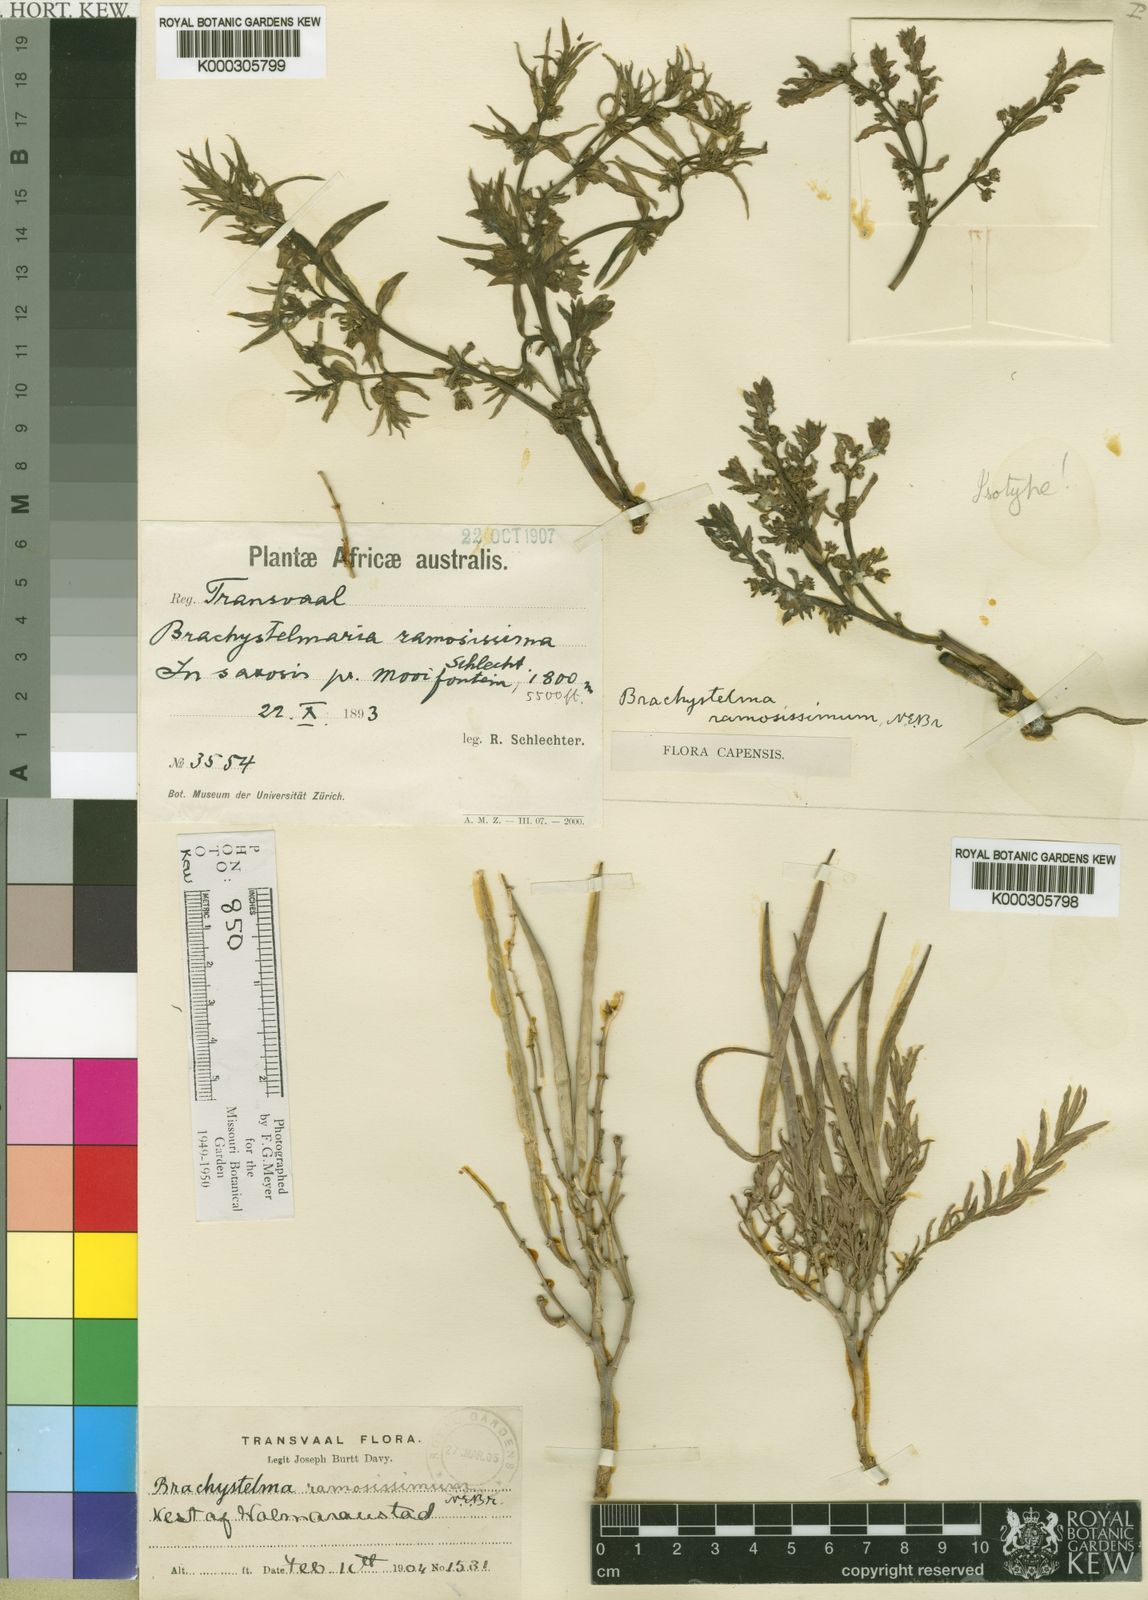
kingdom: Plantae
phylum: Tracheophyta
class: Magnoliopsida
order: Gentianales
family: Apocynaceae
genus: Ceropegia
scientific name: Ceropegia ramosissima
